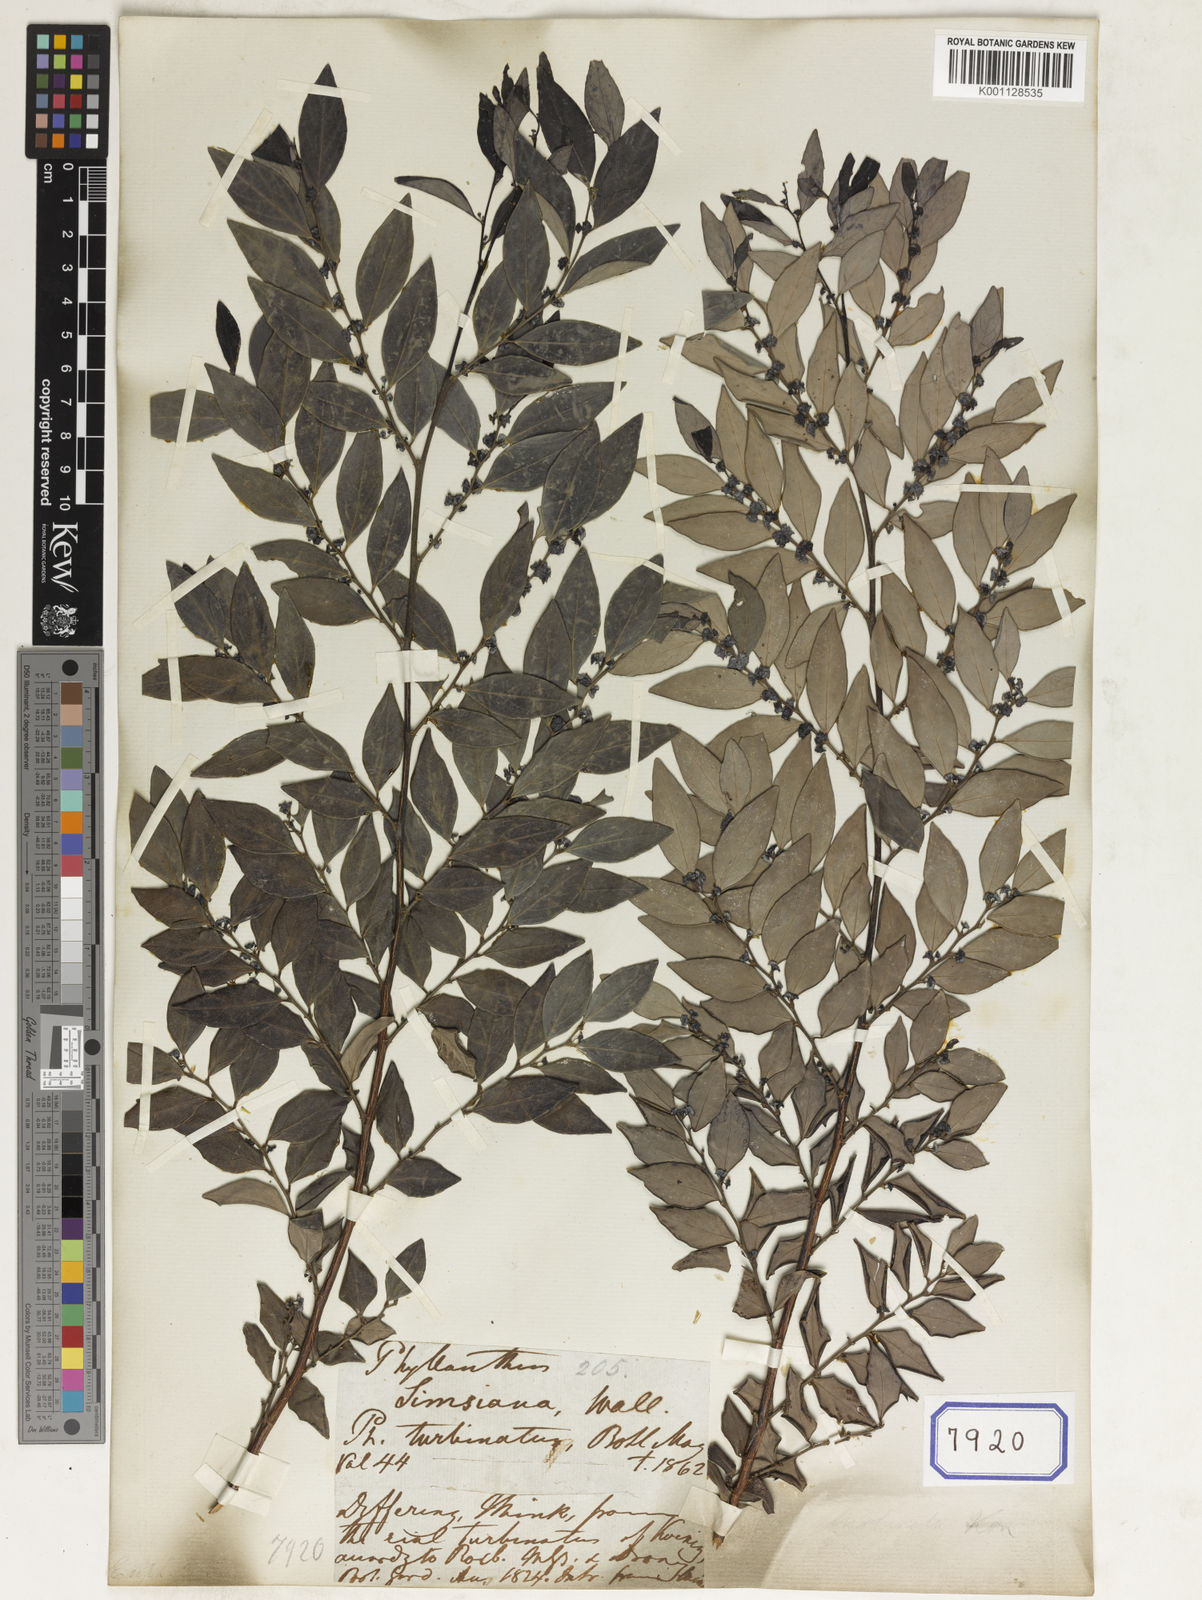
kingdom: Plantae
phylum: Tracheophyta
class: Magnoliopsida
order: Malpighiales
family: Euphorbiaceae
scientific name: Euphorbiaceae
